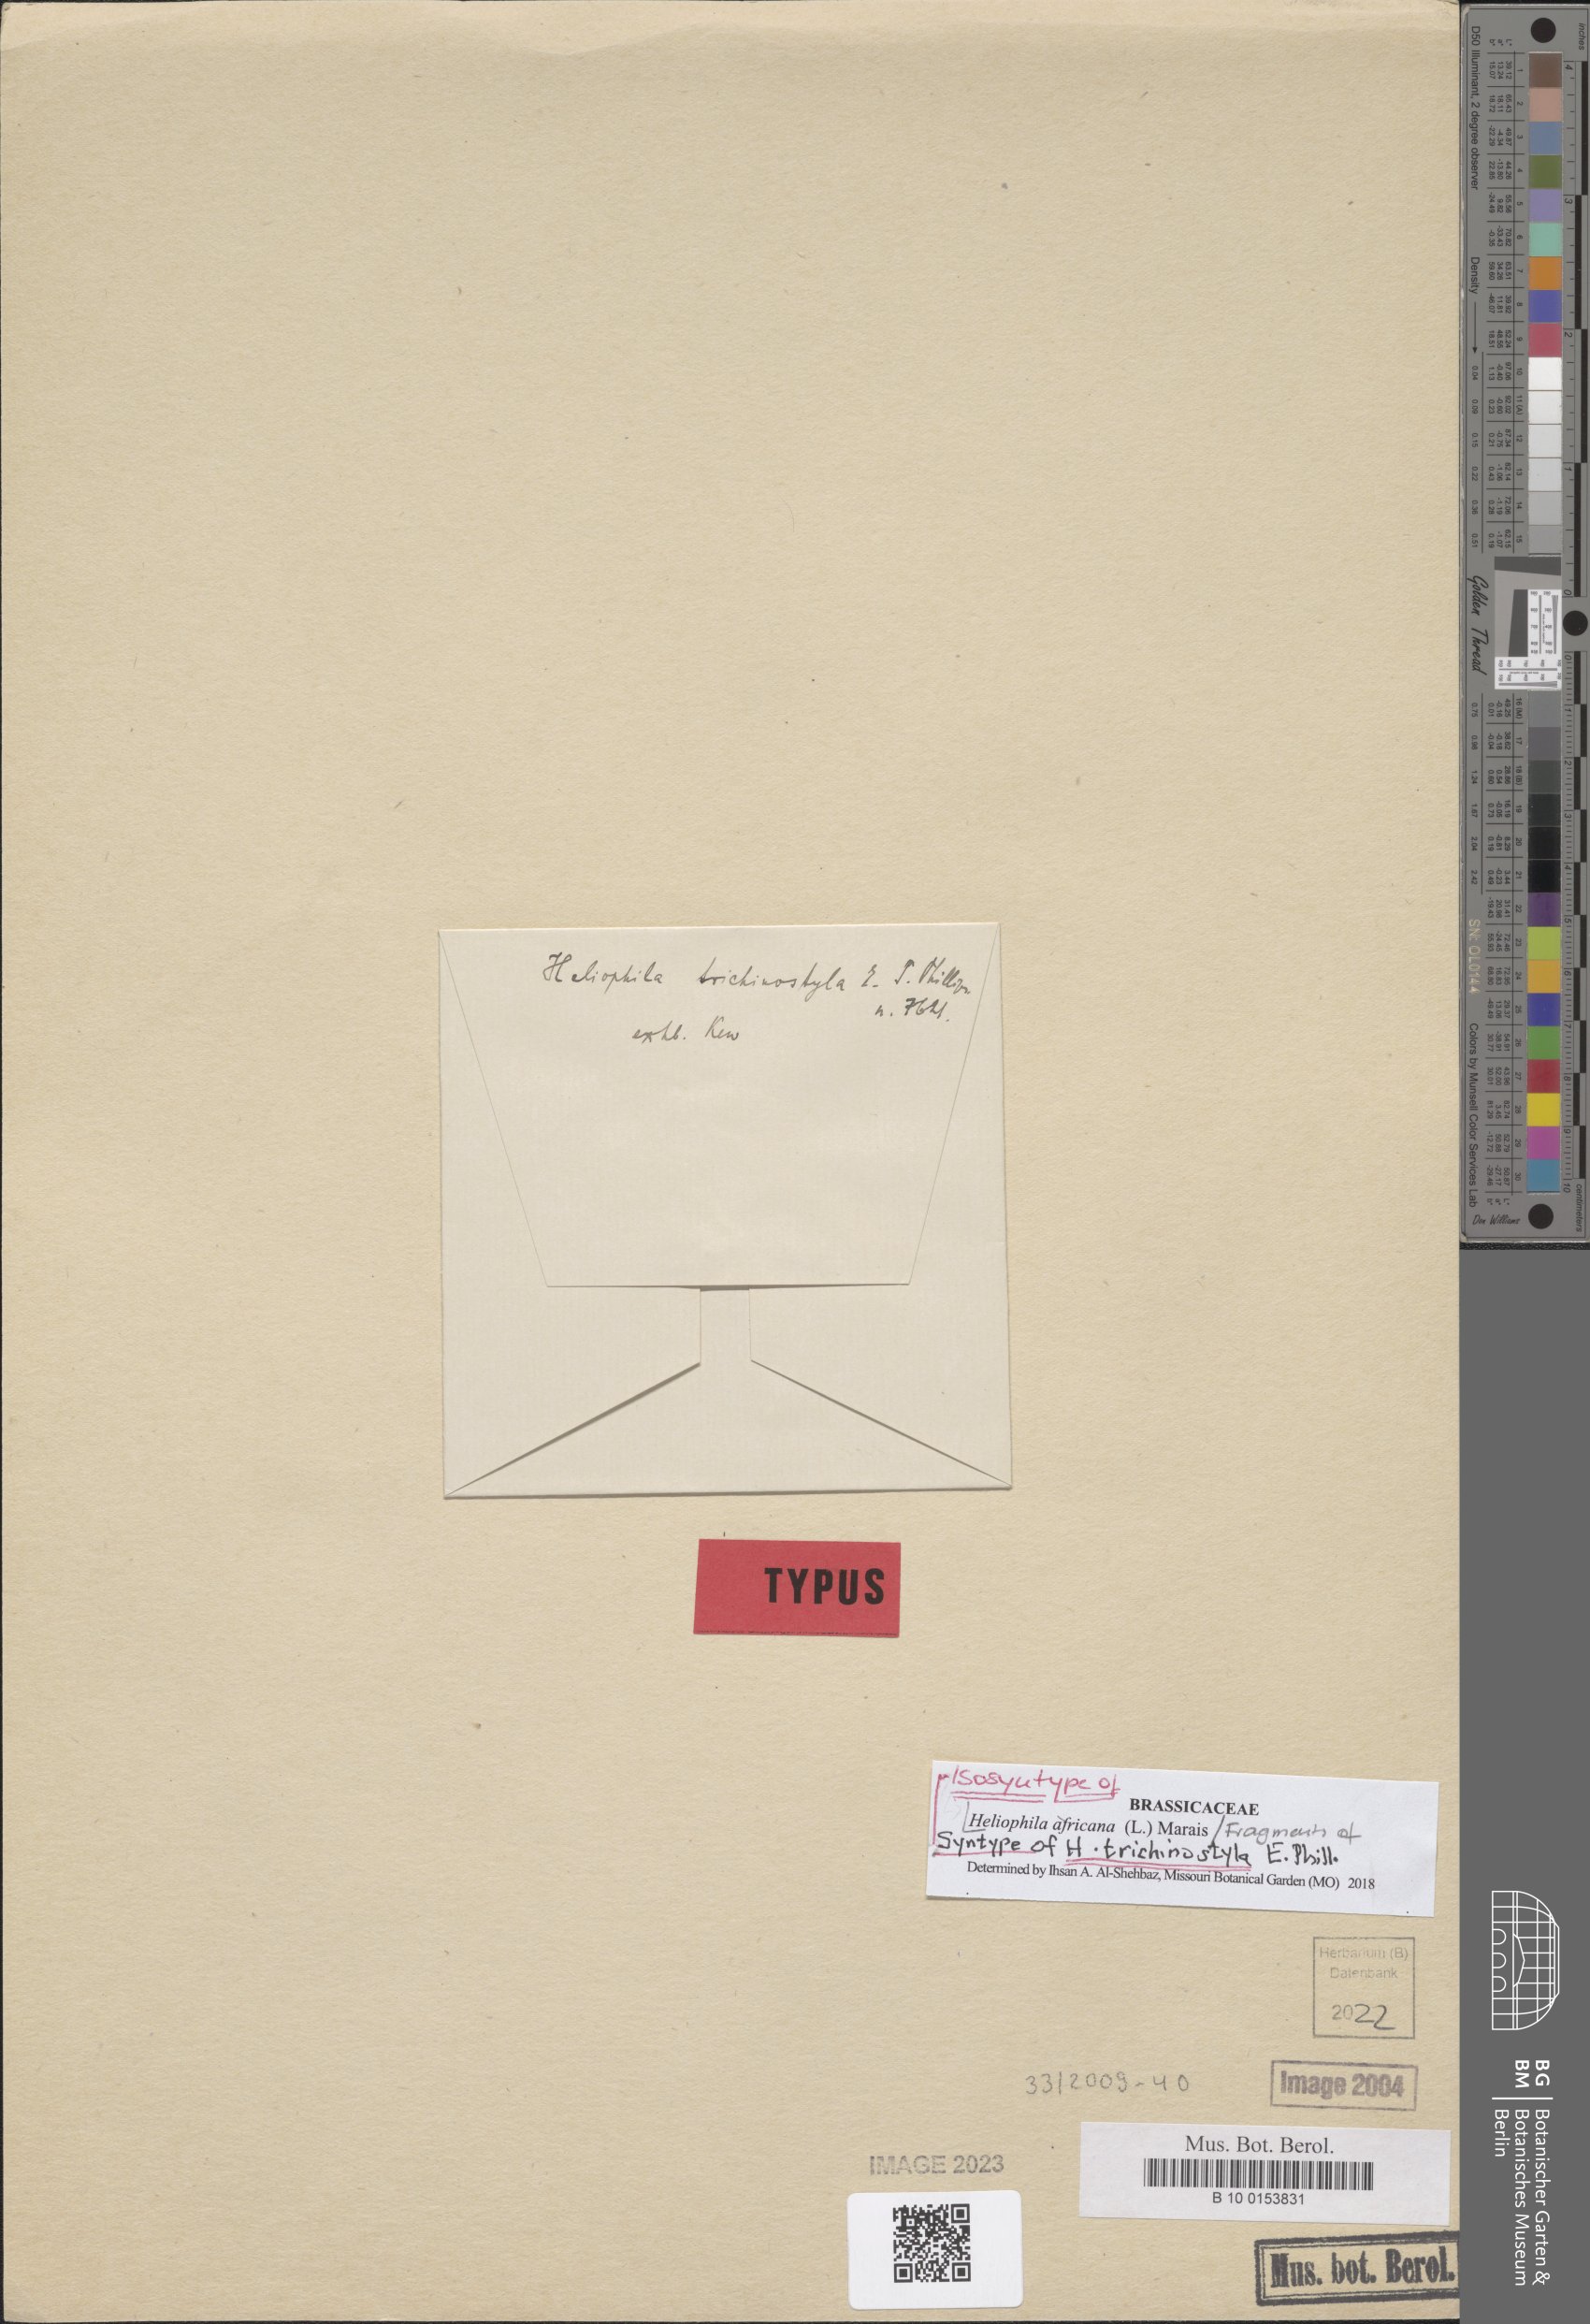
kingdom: Plantae
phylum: Tracheophyta
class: Magnoliopsida
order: Brassicales
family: Brassicaceae
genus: Heliophila
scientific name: Heliophila africana
